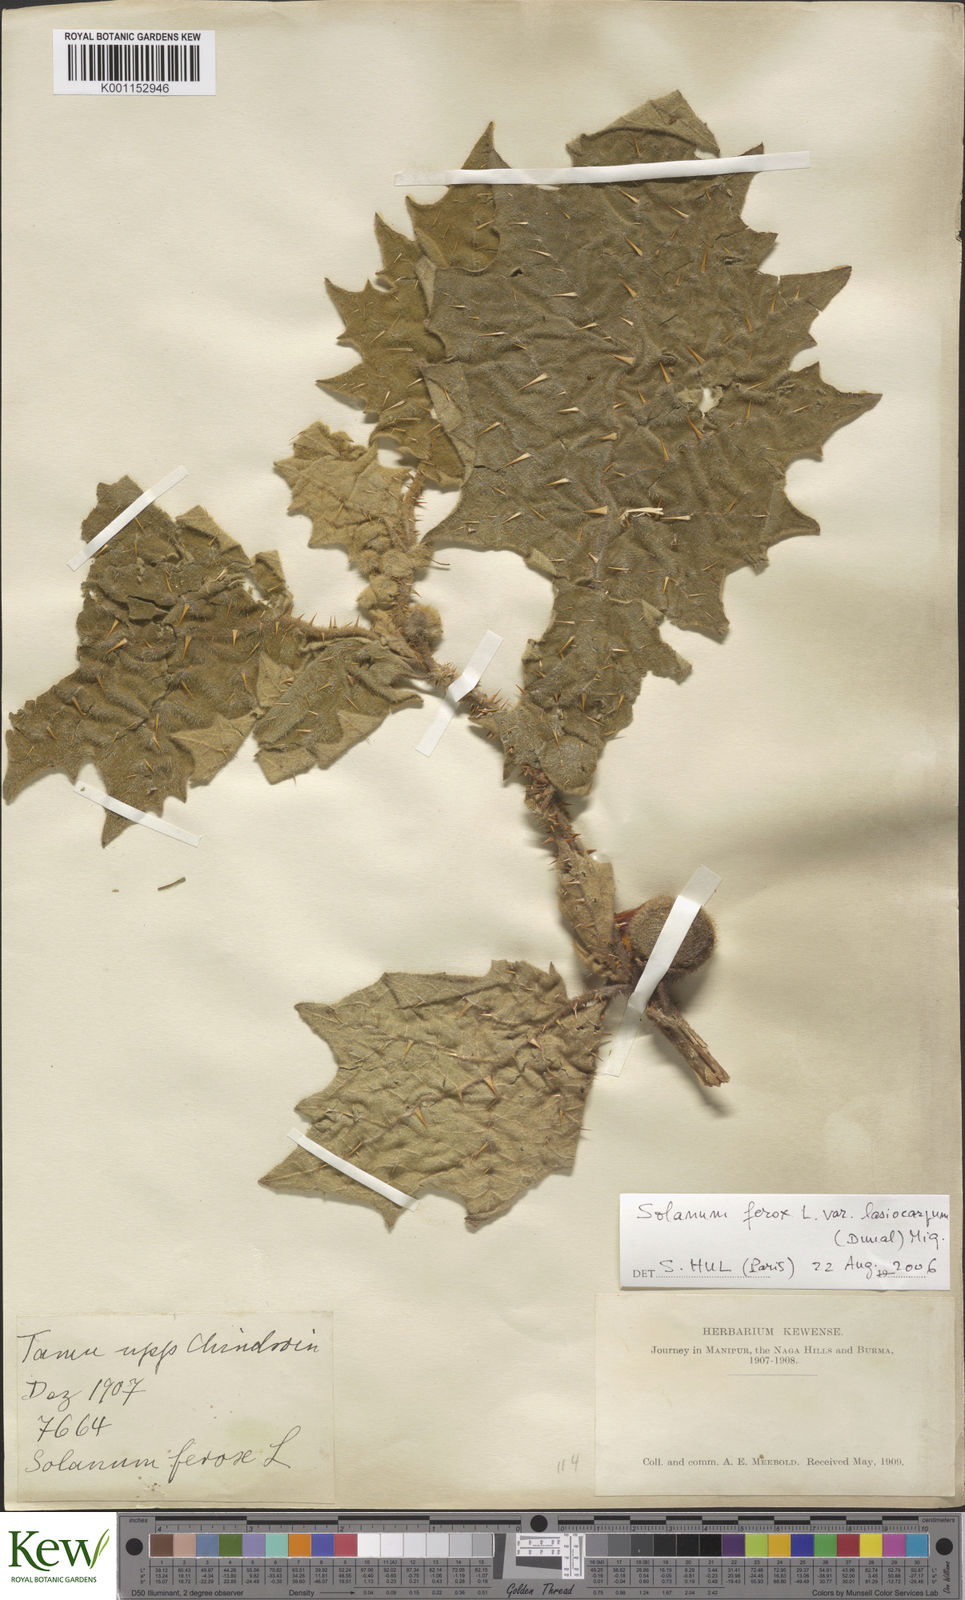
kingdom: Plantae
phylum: Tracheophyta
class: Magnoliopsida
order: Solanales
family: Solanaceae
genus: Solanum
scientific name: Solanum
